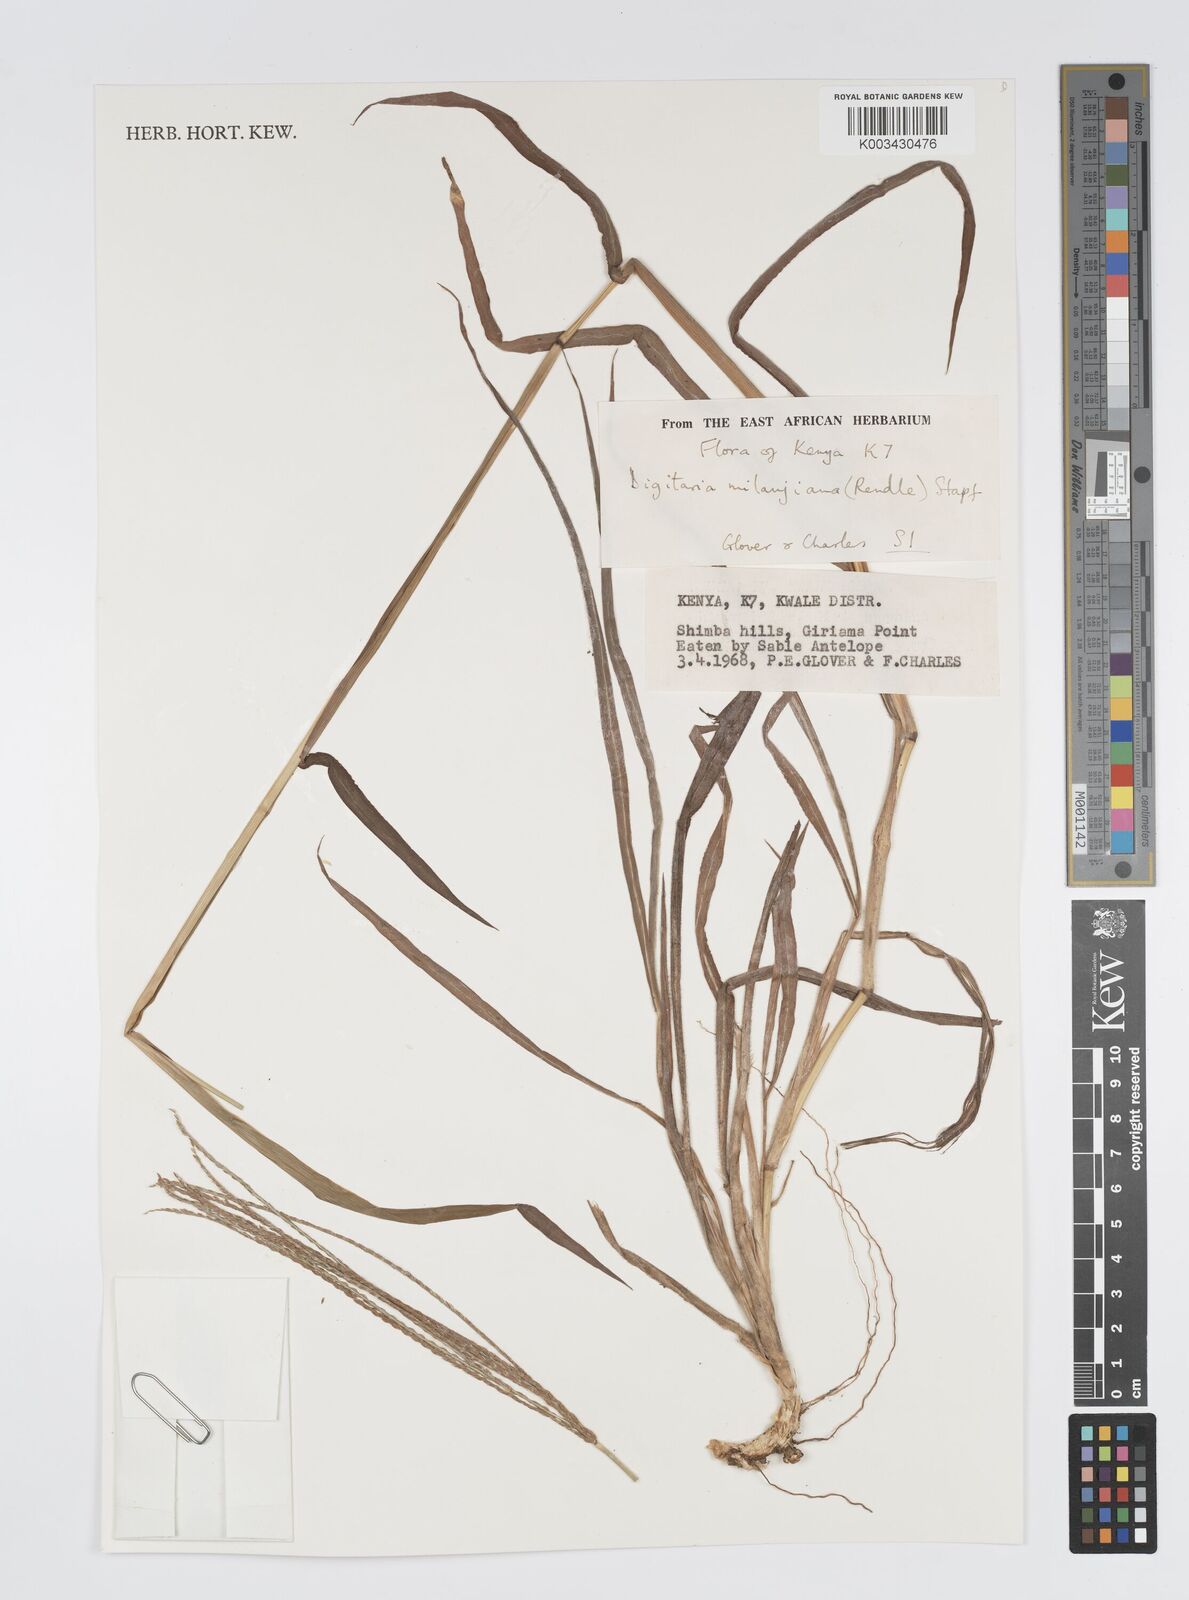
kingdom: Plantae
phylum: Tracheophyta
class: Liliopsida
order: Poales
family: Poaceae
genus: Digitaria
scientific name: Digitaria milanjiana
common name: Madagascar crabgrass
